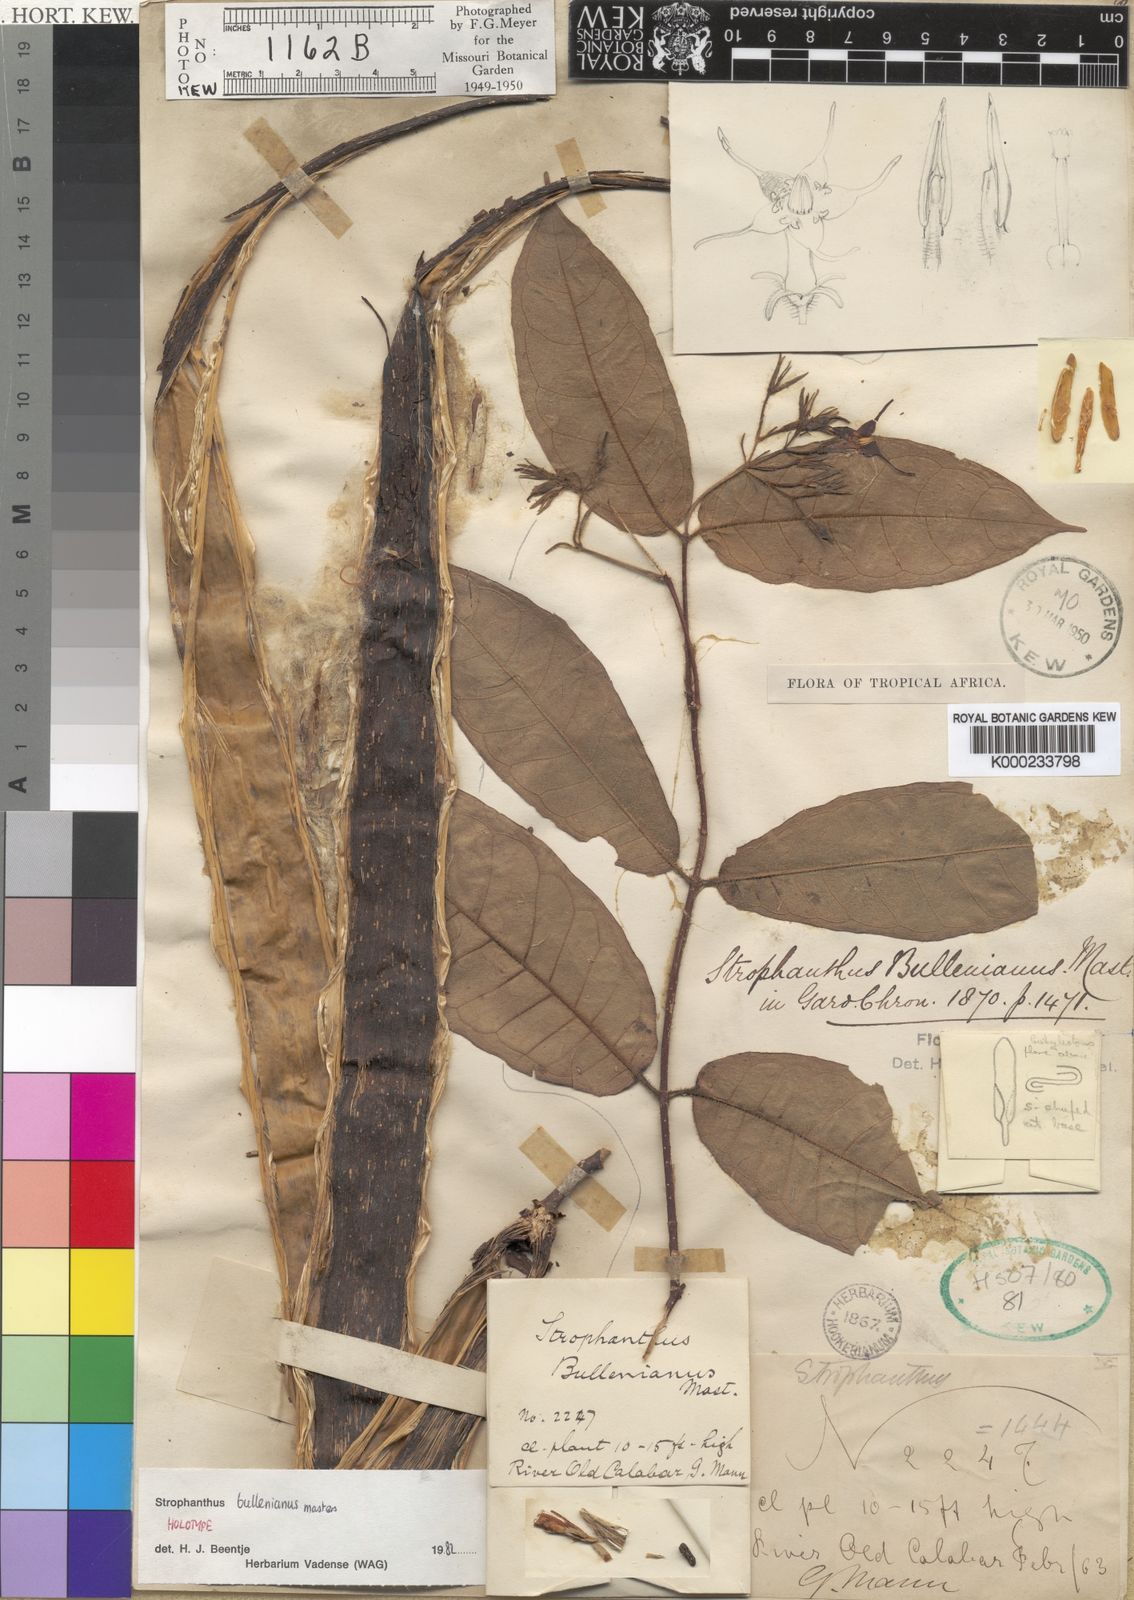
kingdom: Plantae
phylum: Tracheophyta
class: Magnoliopsida
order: Gentianales
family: Apocynaceae
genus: Strophanthus
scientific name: Strophanthus bullenianus
